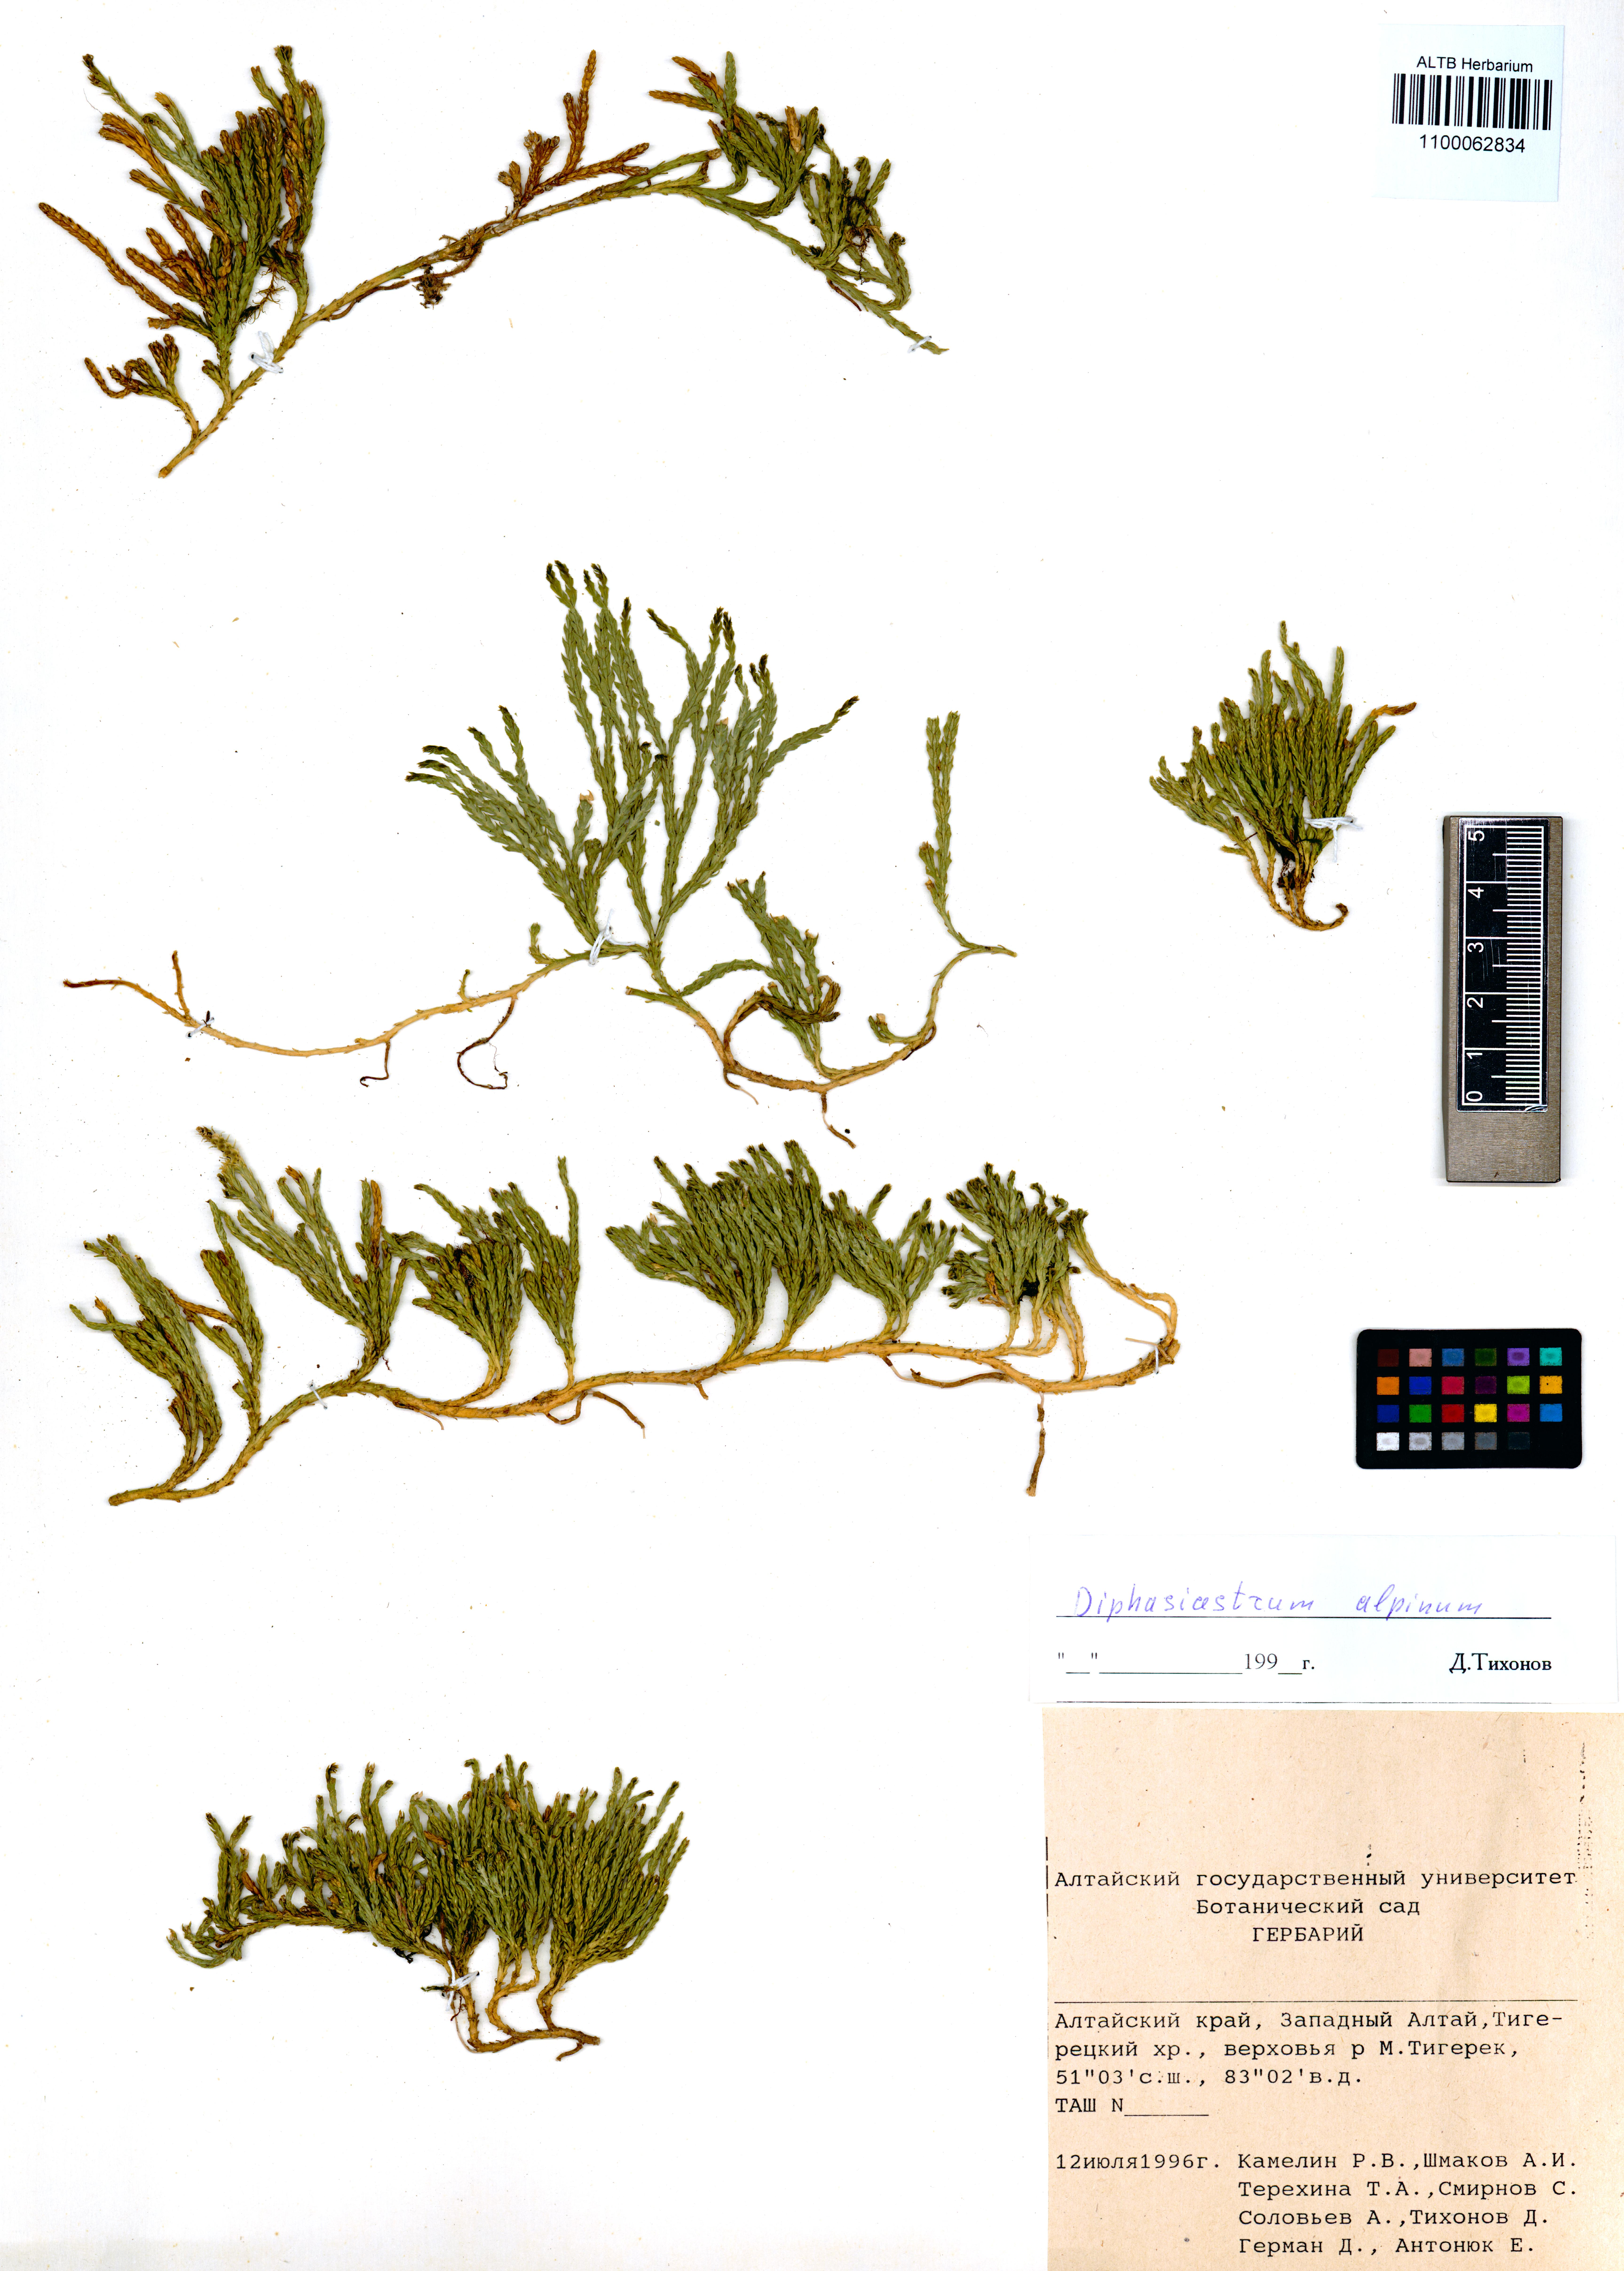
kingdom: Plantae
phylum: Tracheophyta
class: Lycopodiopsida
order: Lycopodiales
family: Lycopodiaceae
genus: Diphasiastrum
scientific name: Diphasiastrum alpinum
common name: Alpine clubmoss
